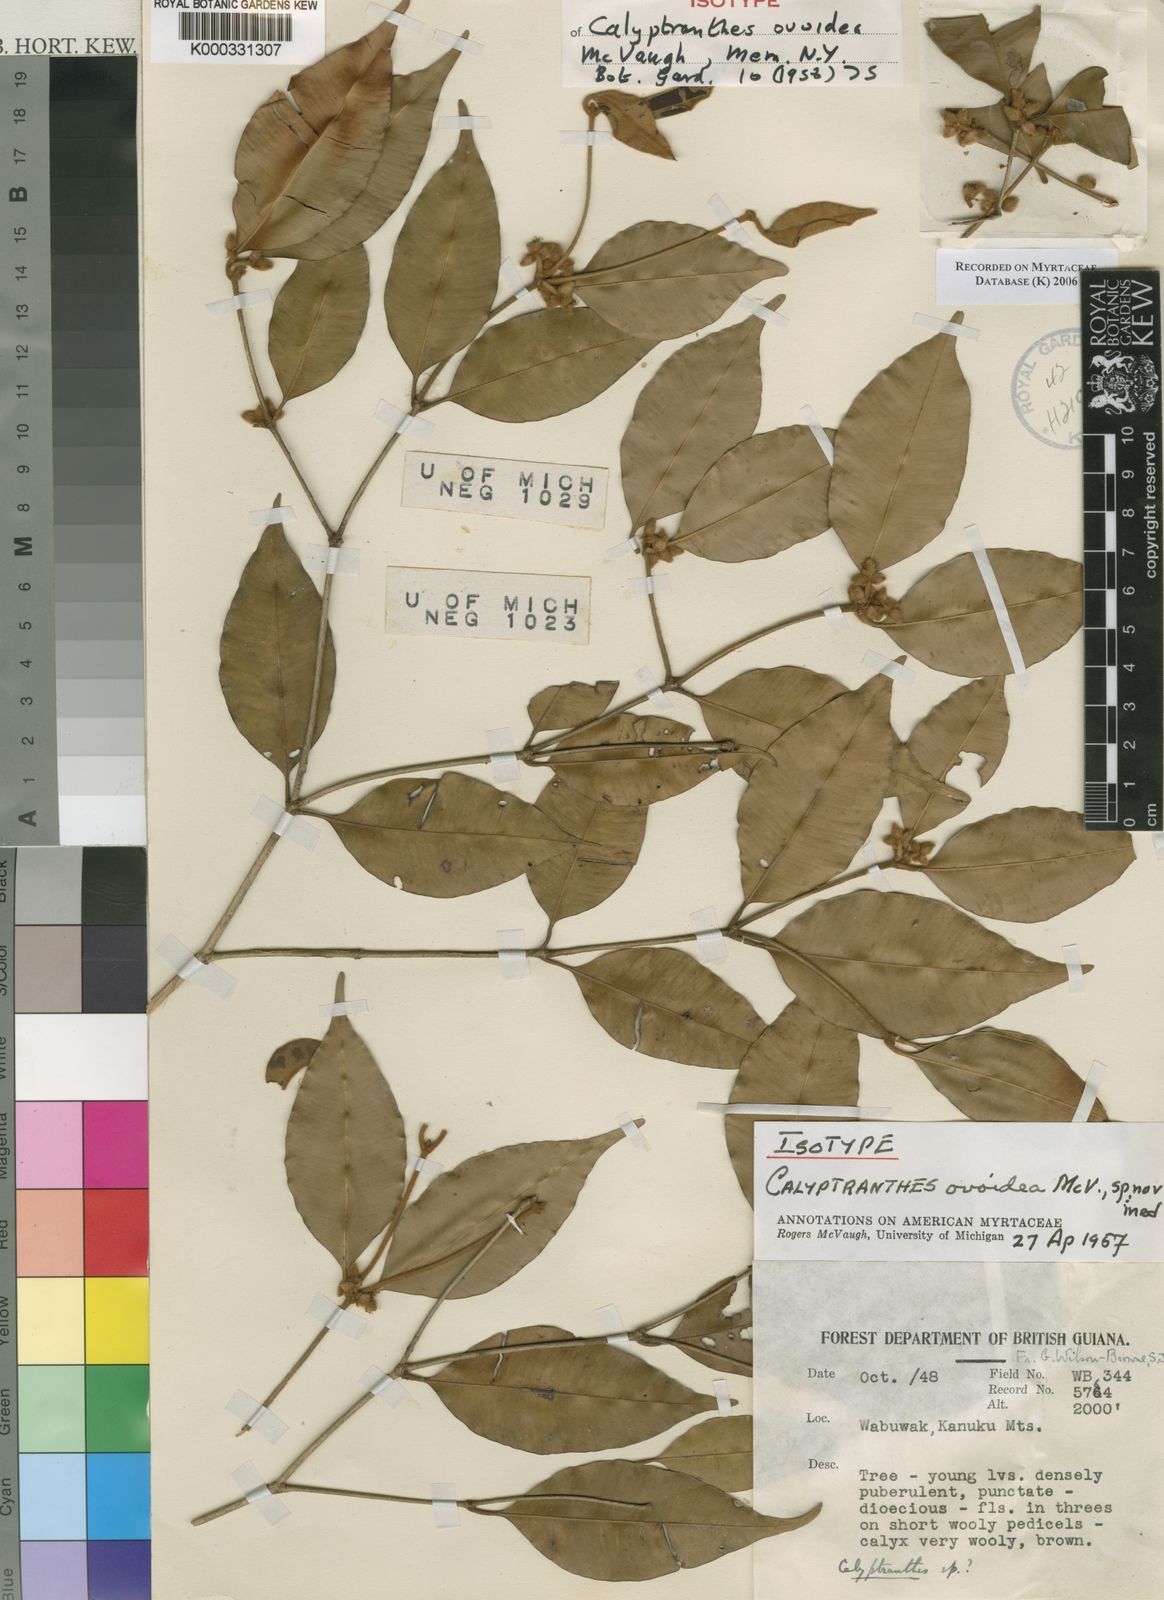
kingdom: Plantae
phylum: Tracheophyta
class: Magnoliopsida
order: Myrtales
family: Myrtaceae
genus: Myrcia
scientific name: Myrcia ovoidea
